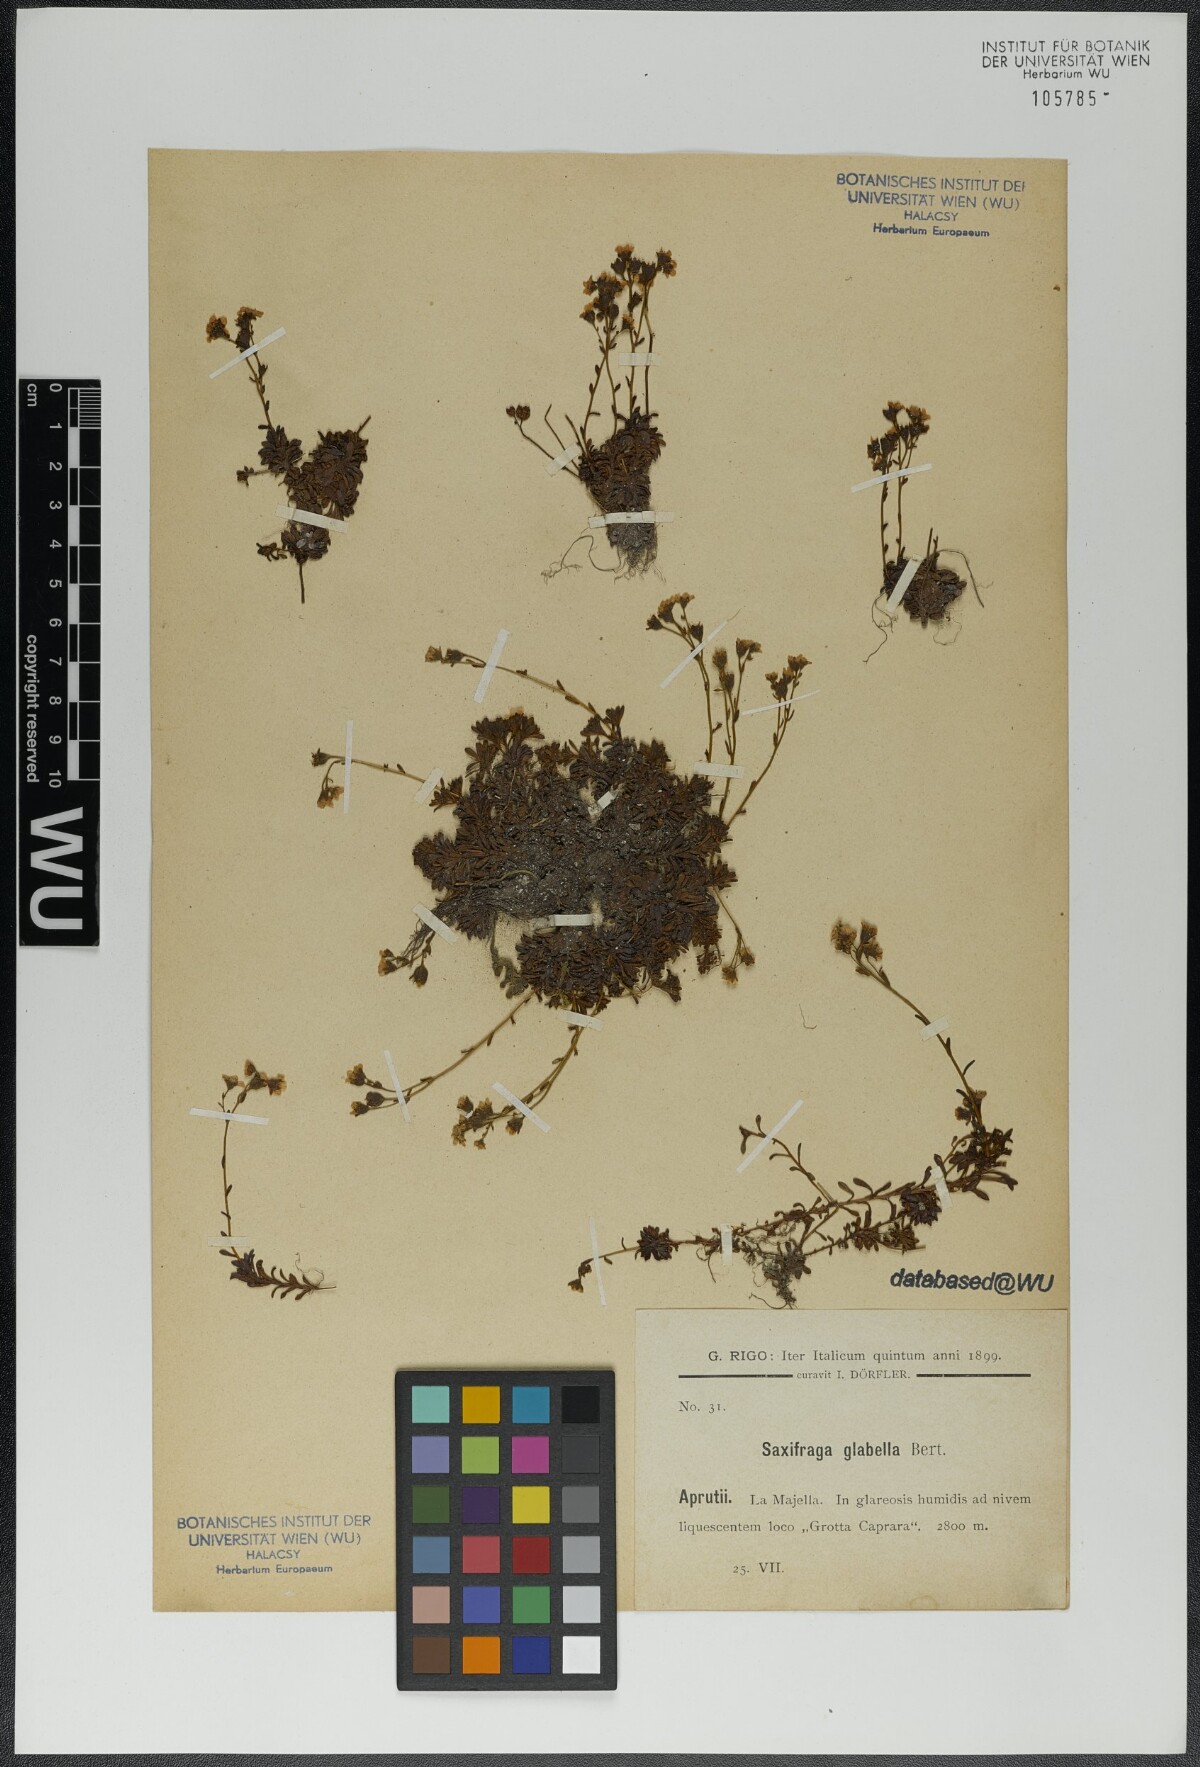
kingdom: Plantae
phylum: Tracheophyta
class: Magnoliopsida
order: Saxifragales
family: Saxifragaceae
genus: Saxifraga
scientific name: Saxifraga glabella
